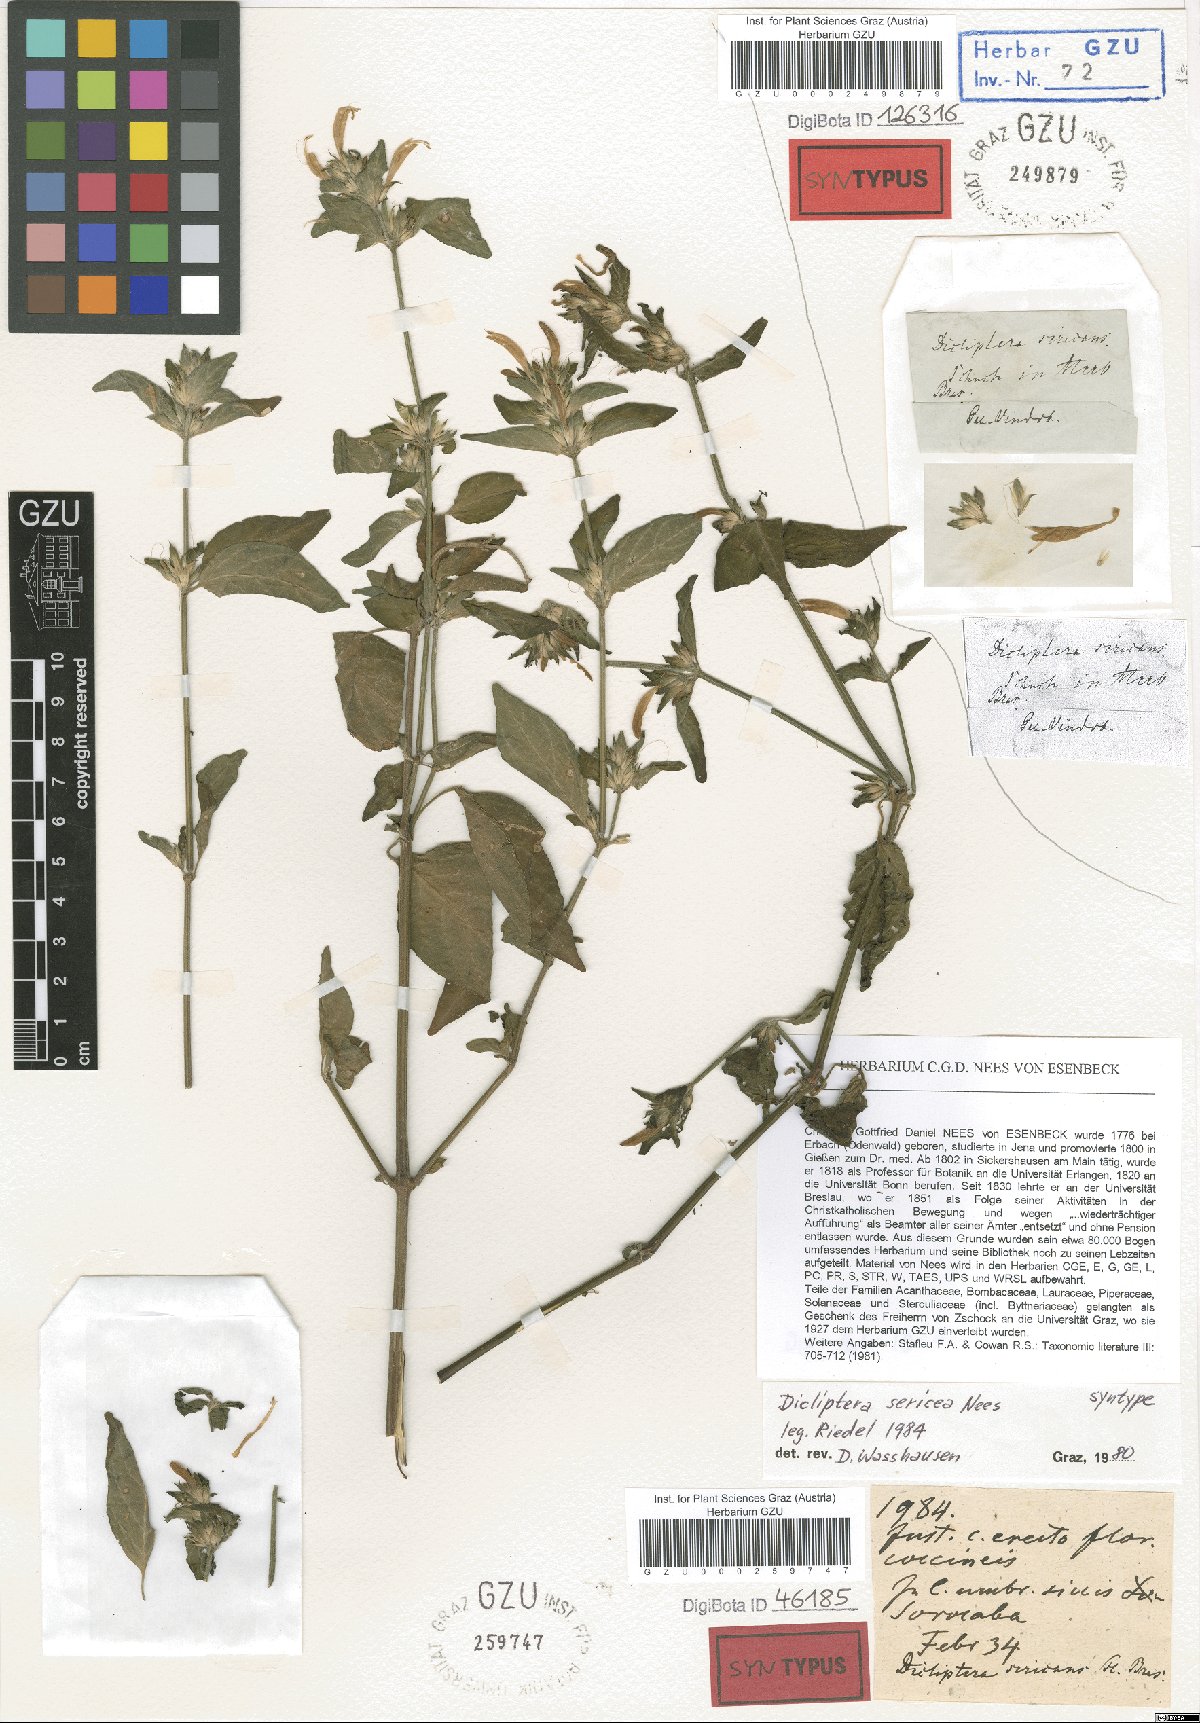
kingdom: Plantae
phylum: Tracheophyta
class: Magnoliopsida
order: Lamiales
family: Acanthaceae
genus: Dicliptera
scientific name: Dicliptera squarrosa
